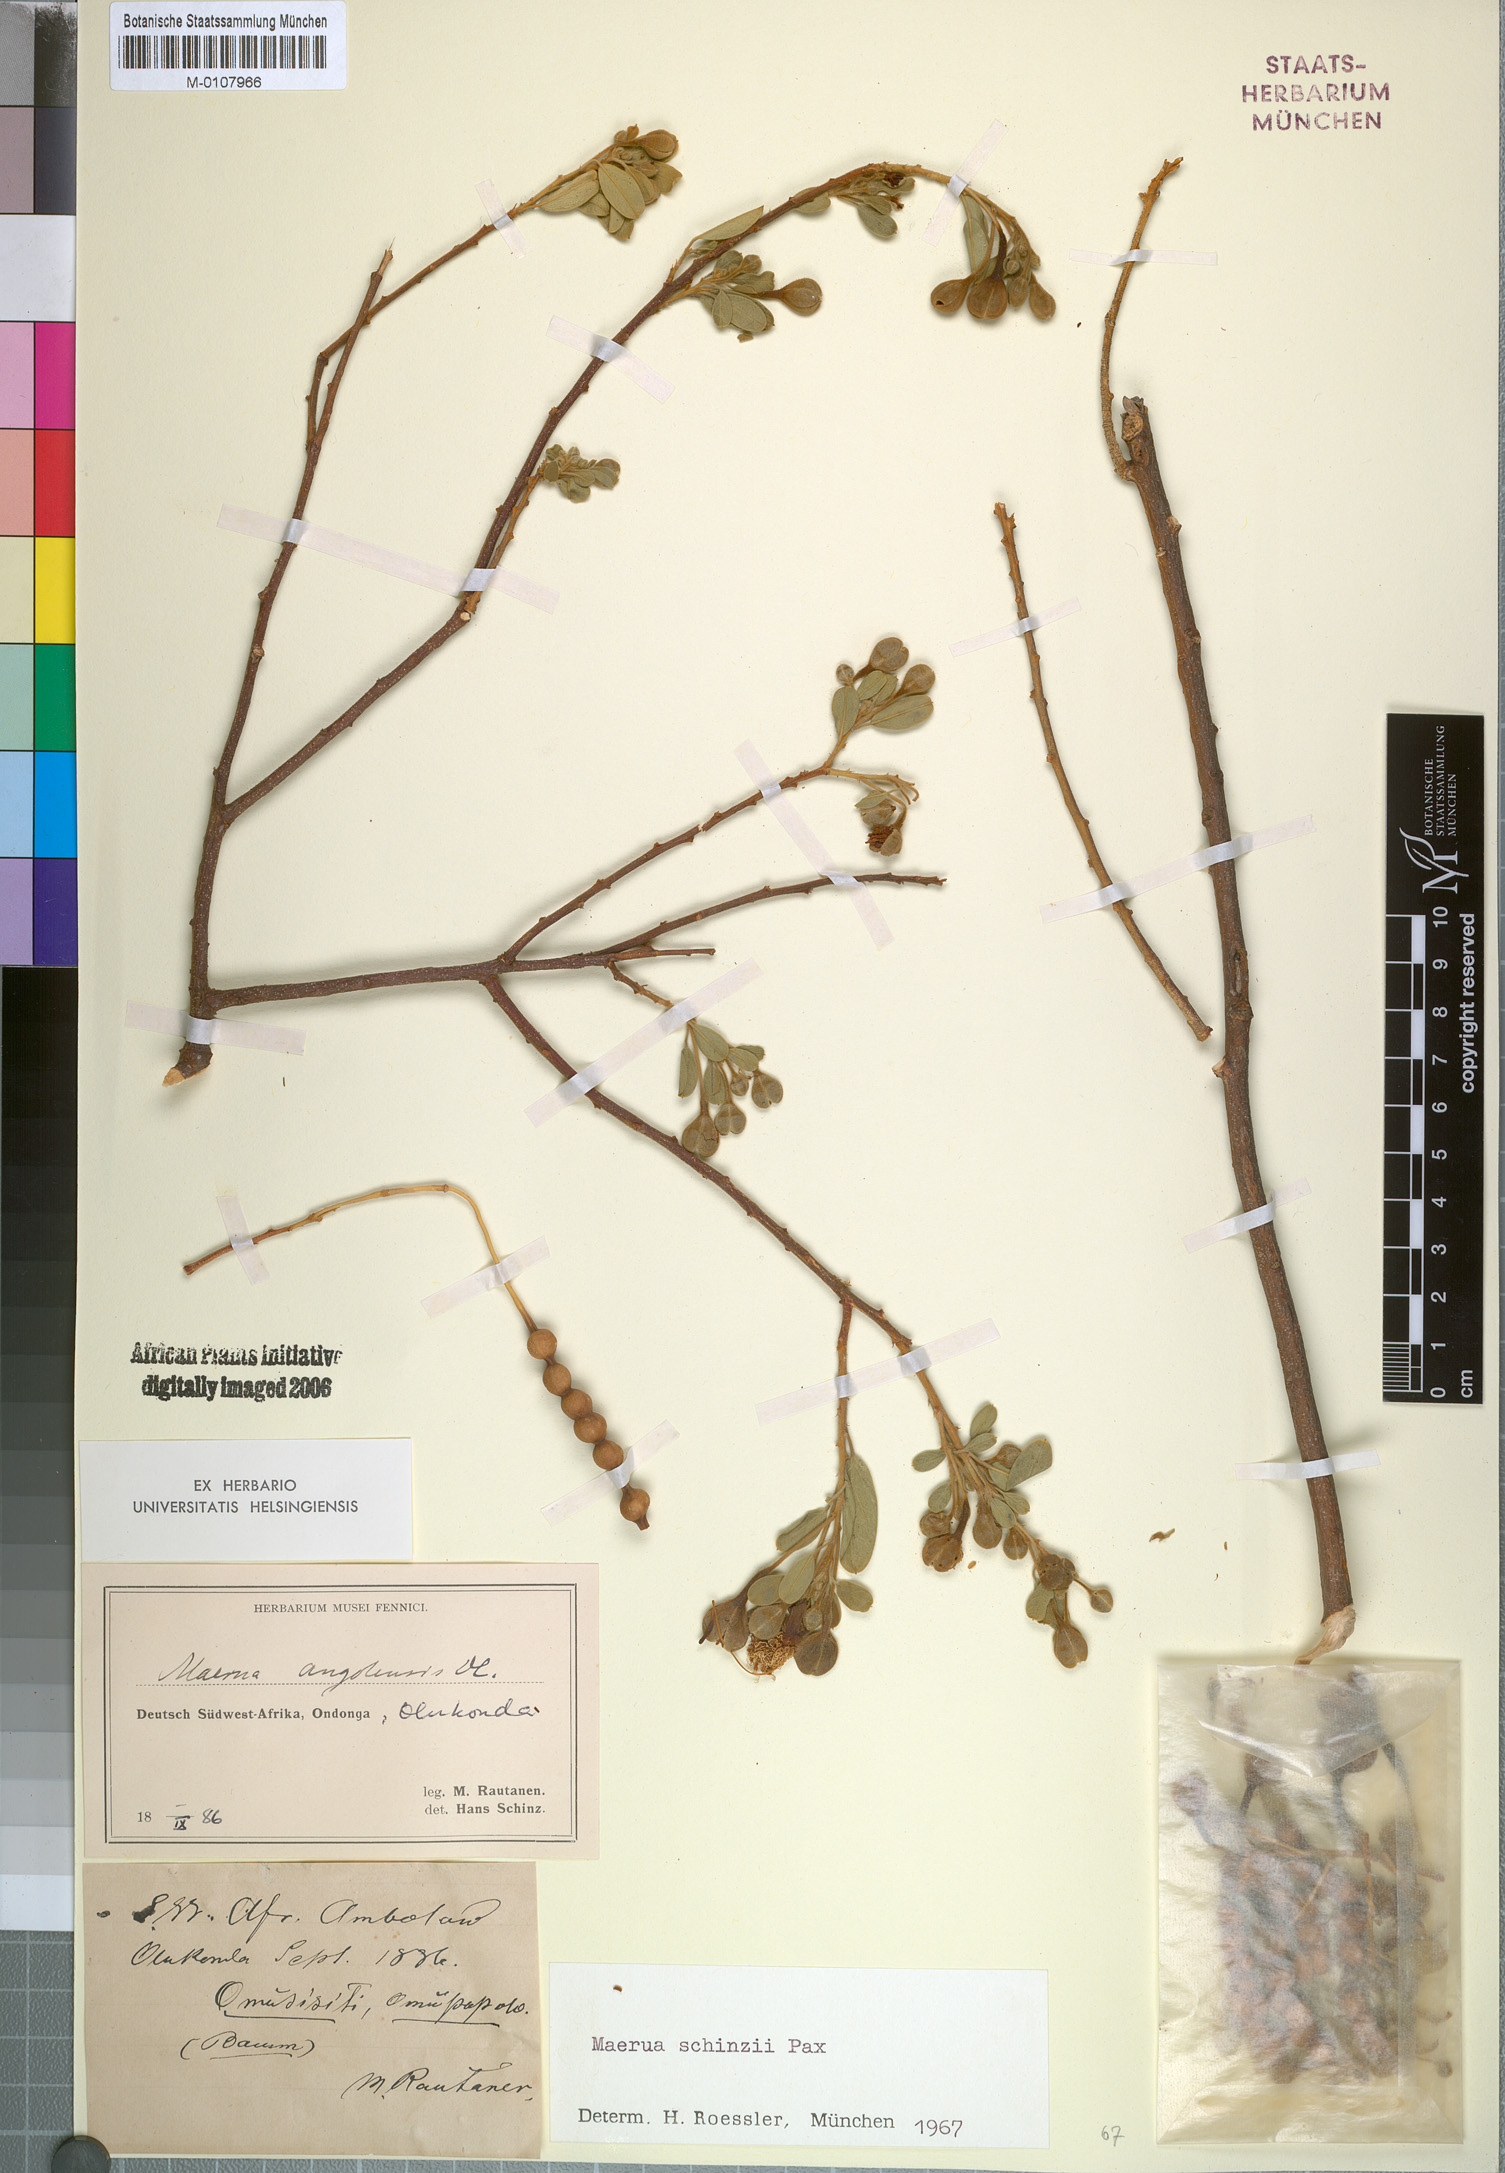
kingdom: Plantae
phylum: Tracheophyta
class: Magnoliopsida
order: Brassicales
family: Capparaceae
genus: Maerua
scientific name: Maerua schinzii
